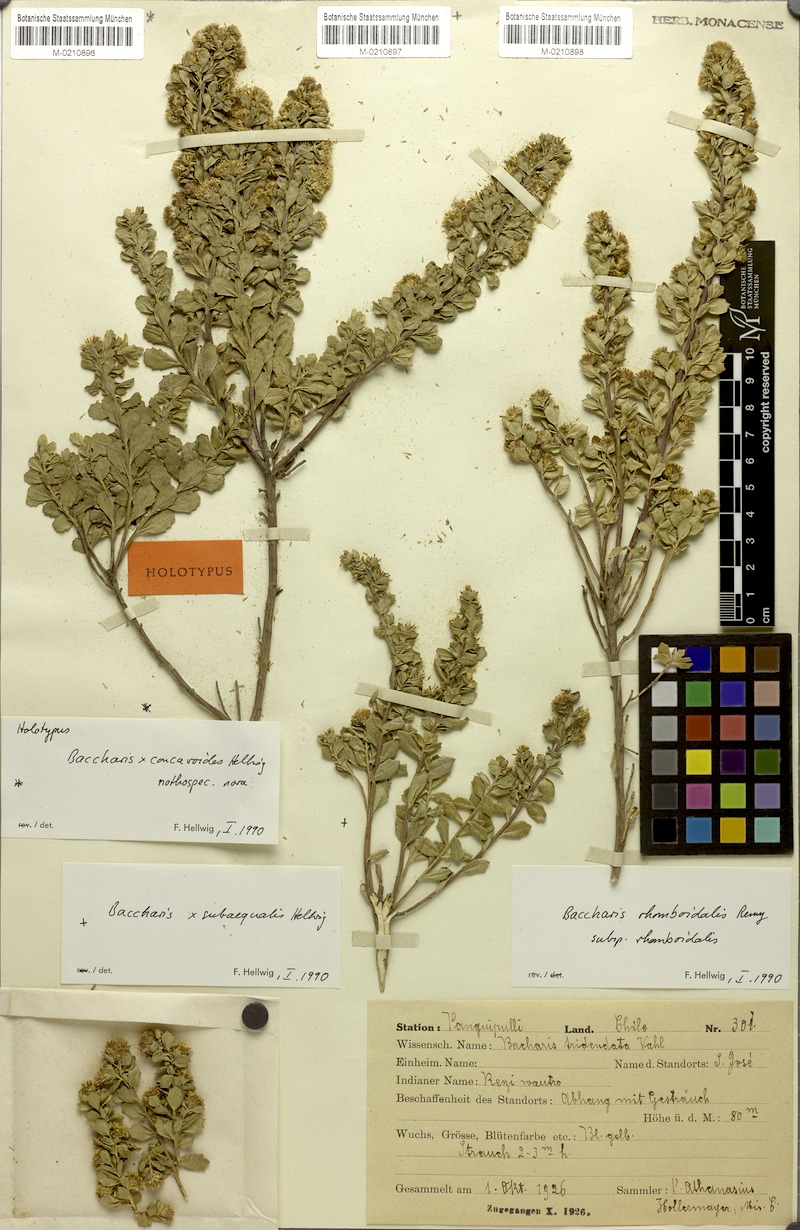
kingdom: Plantae
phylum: Tracheophyta
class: Magnoliopsida
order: Asterales
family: Asteraceae
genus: Baccharis
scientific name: Baccharis concavoides
